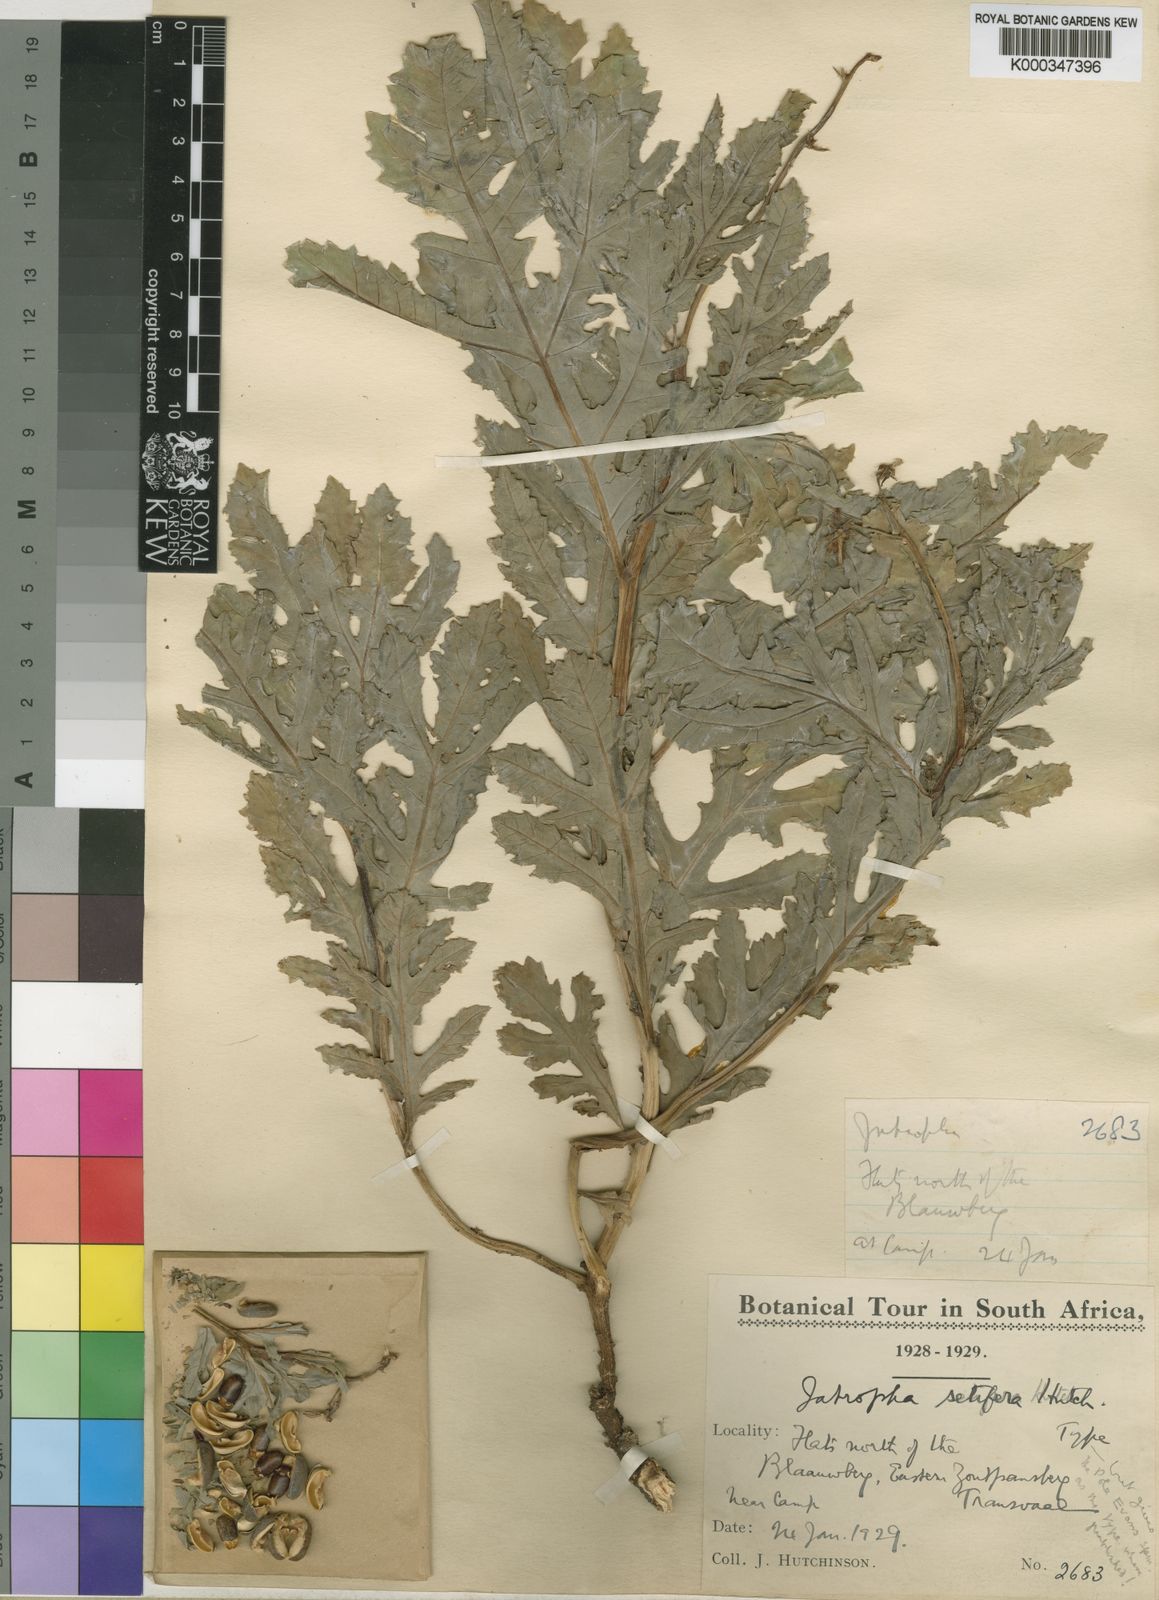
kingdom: Plantae
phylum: Tracheophyta
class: Magnoliopsida
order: Malpighiales
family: Euphorbiaceae
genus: Jatropha
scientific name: Jatropha schlechteri
